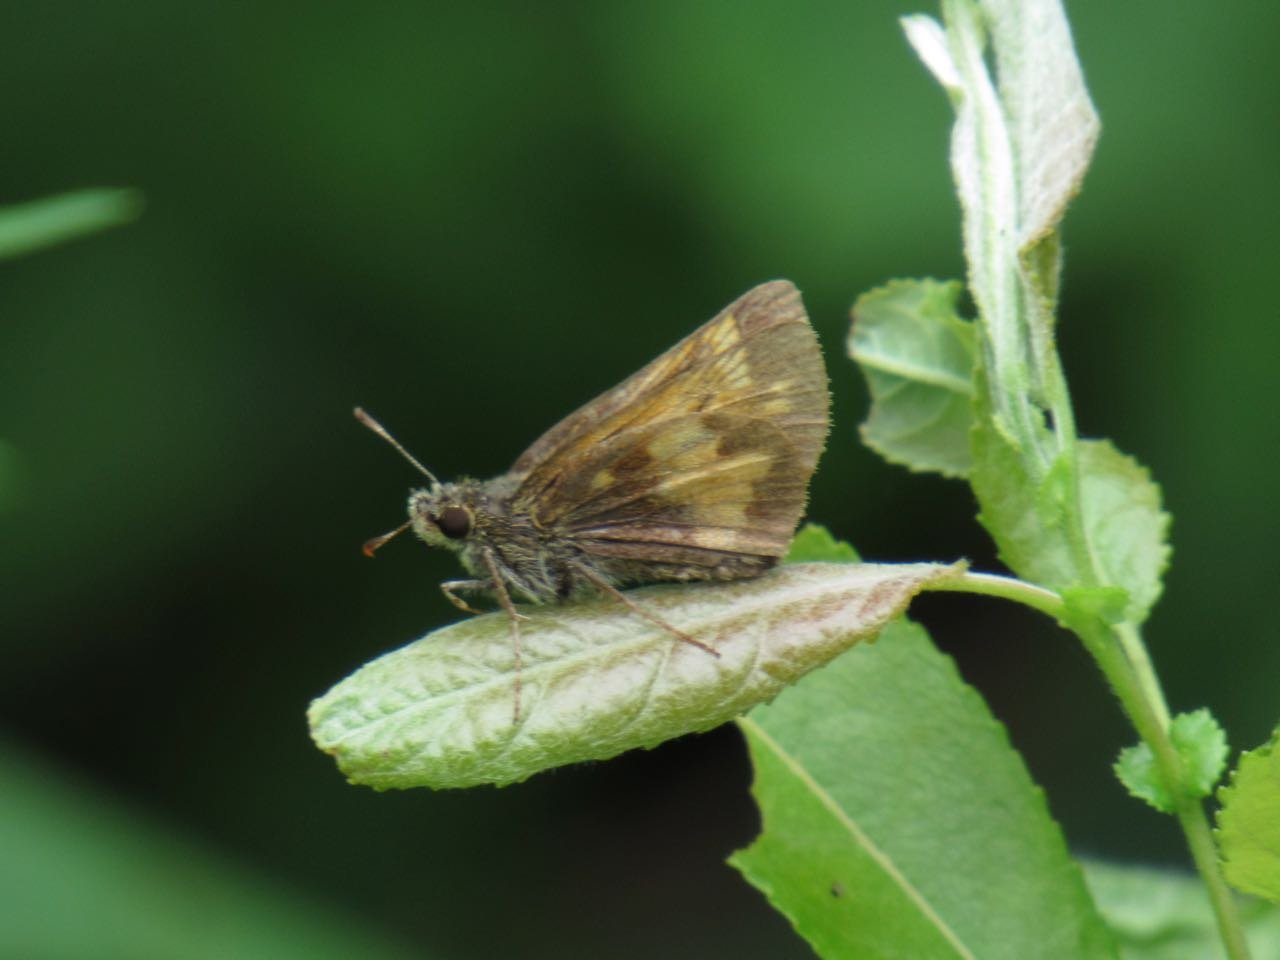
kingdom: Animalia
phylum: Arthropoda
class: Insecta
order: Lepidoptera
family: Hesperiidae
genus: Lon
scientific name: Lon hobomok
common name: Hobomok Skipper
